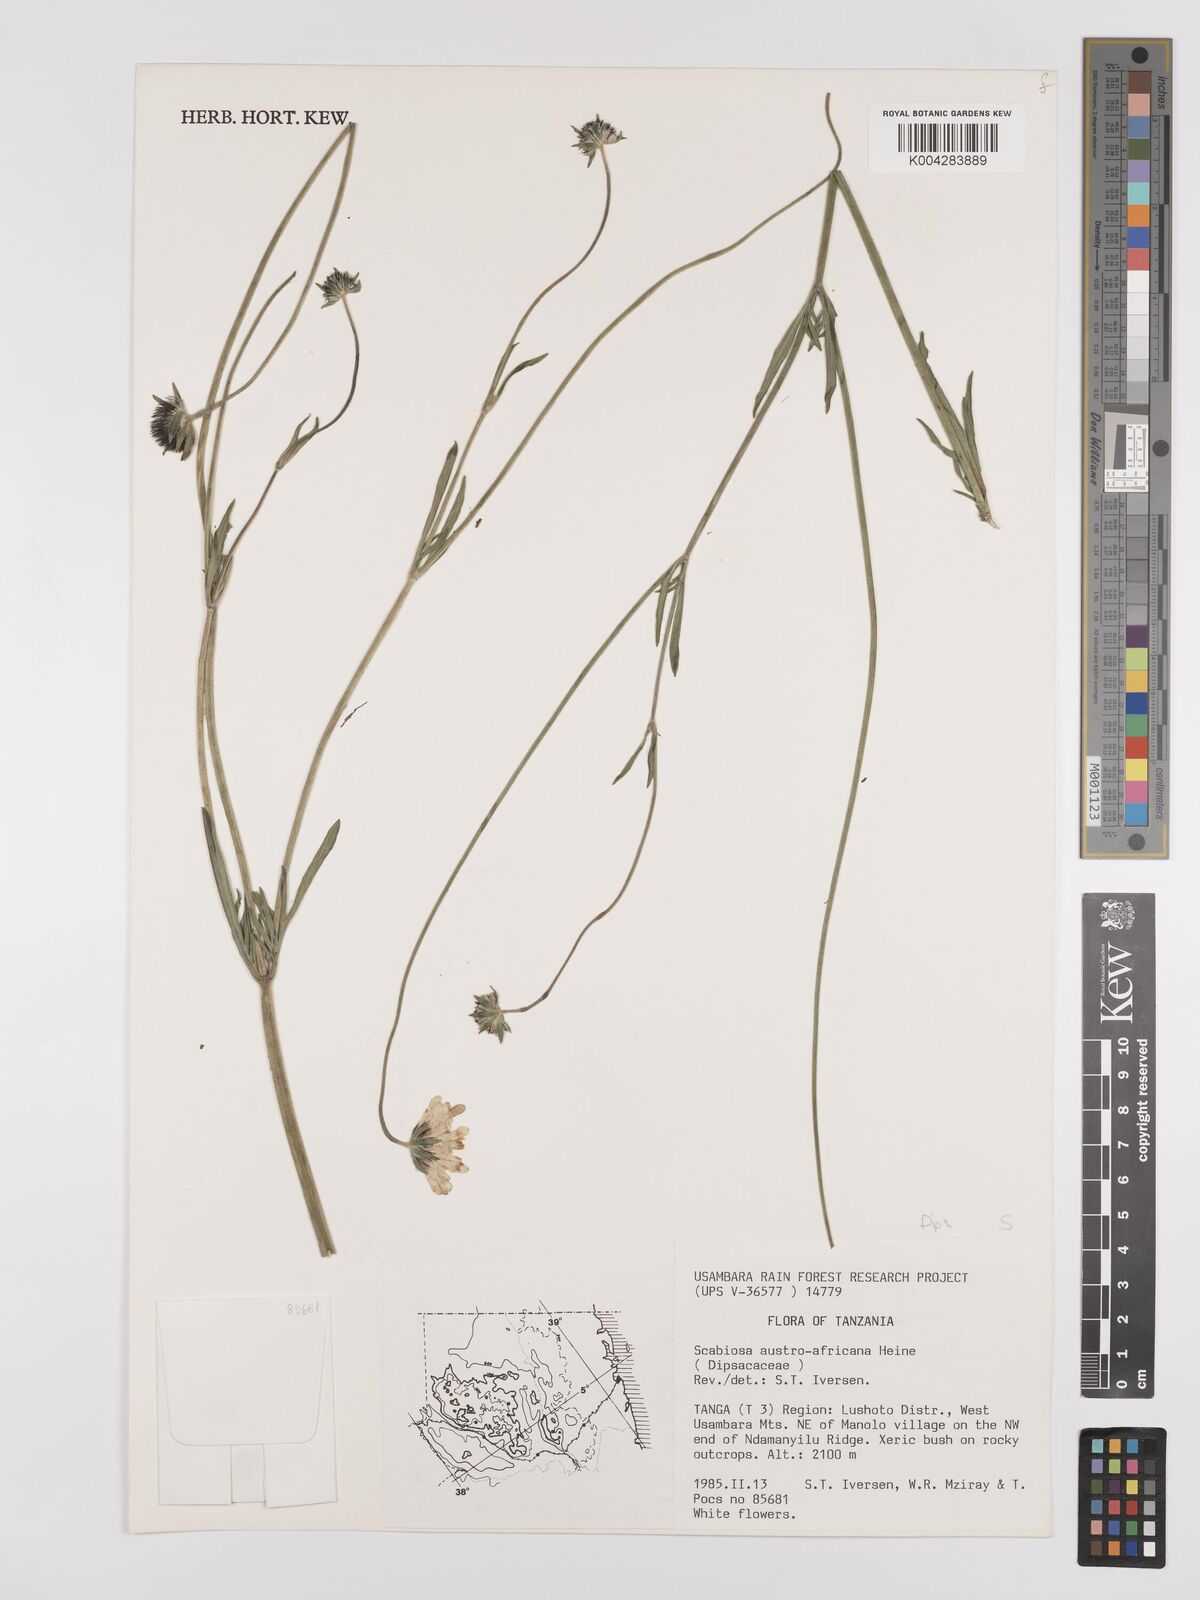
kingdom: Plantae
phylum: Tracheophyta
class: Magnoliopsida
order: Dipsacales
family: Caprifoliaceae
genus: Scabiosa
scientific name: Scabiosa austroafricana
